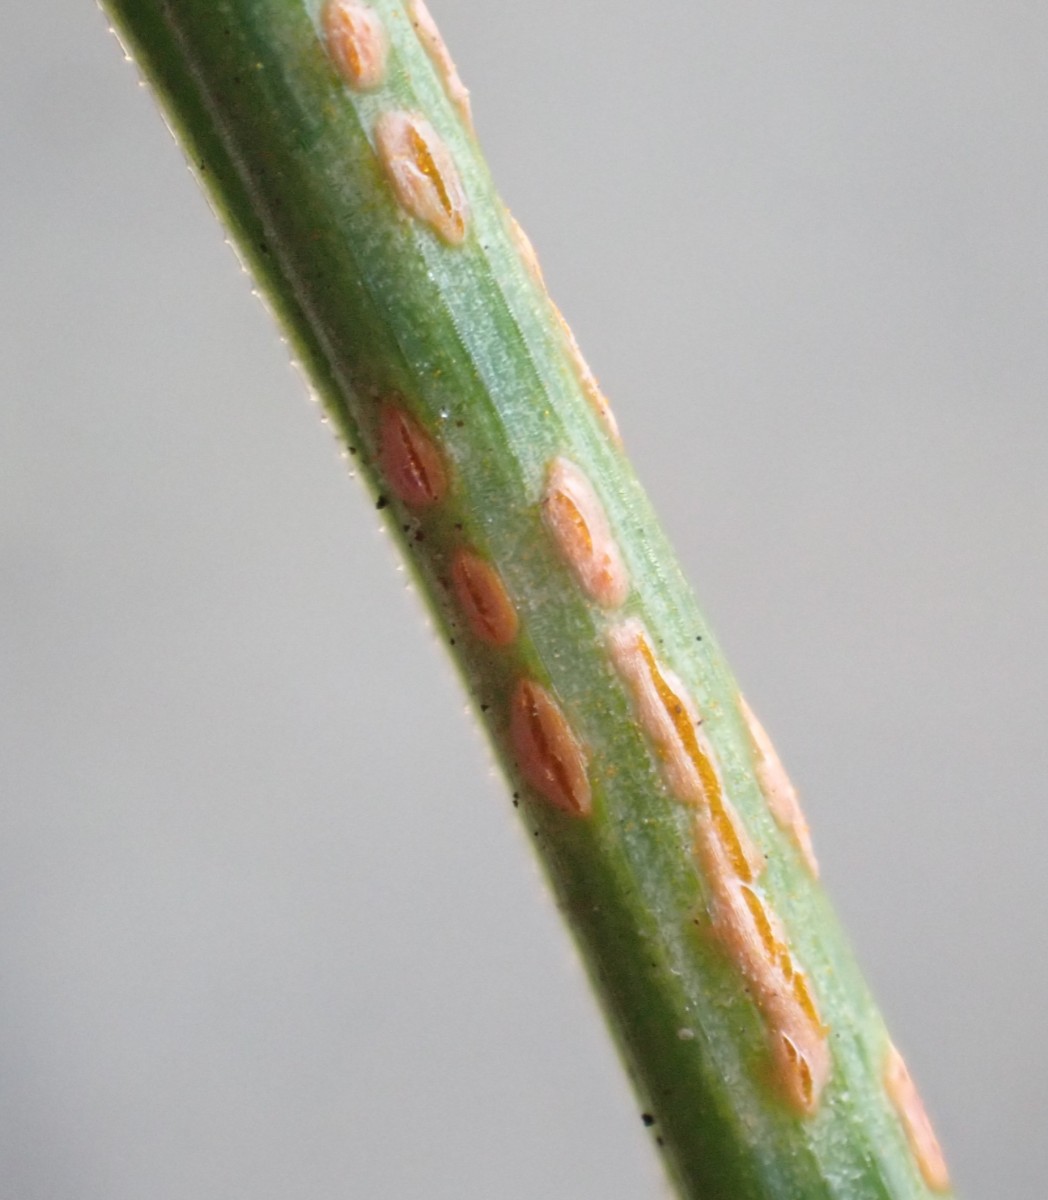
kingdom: Fungi
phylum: Basidiomycota
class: Pucciniomycetes
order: Pucciniales
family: Melampsoraceae
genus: Melampsora
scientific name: Melampsora allii-fragilis
